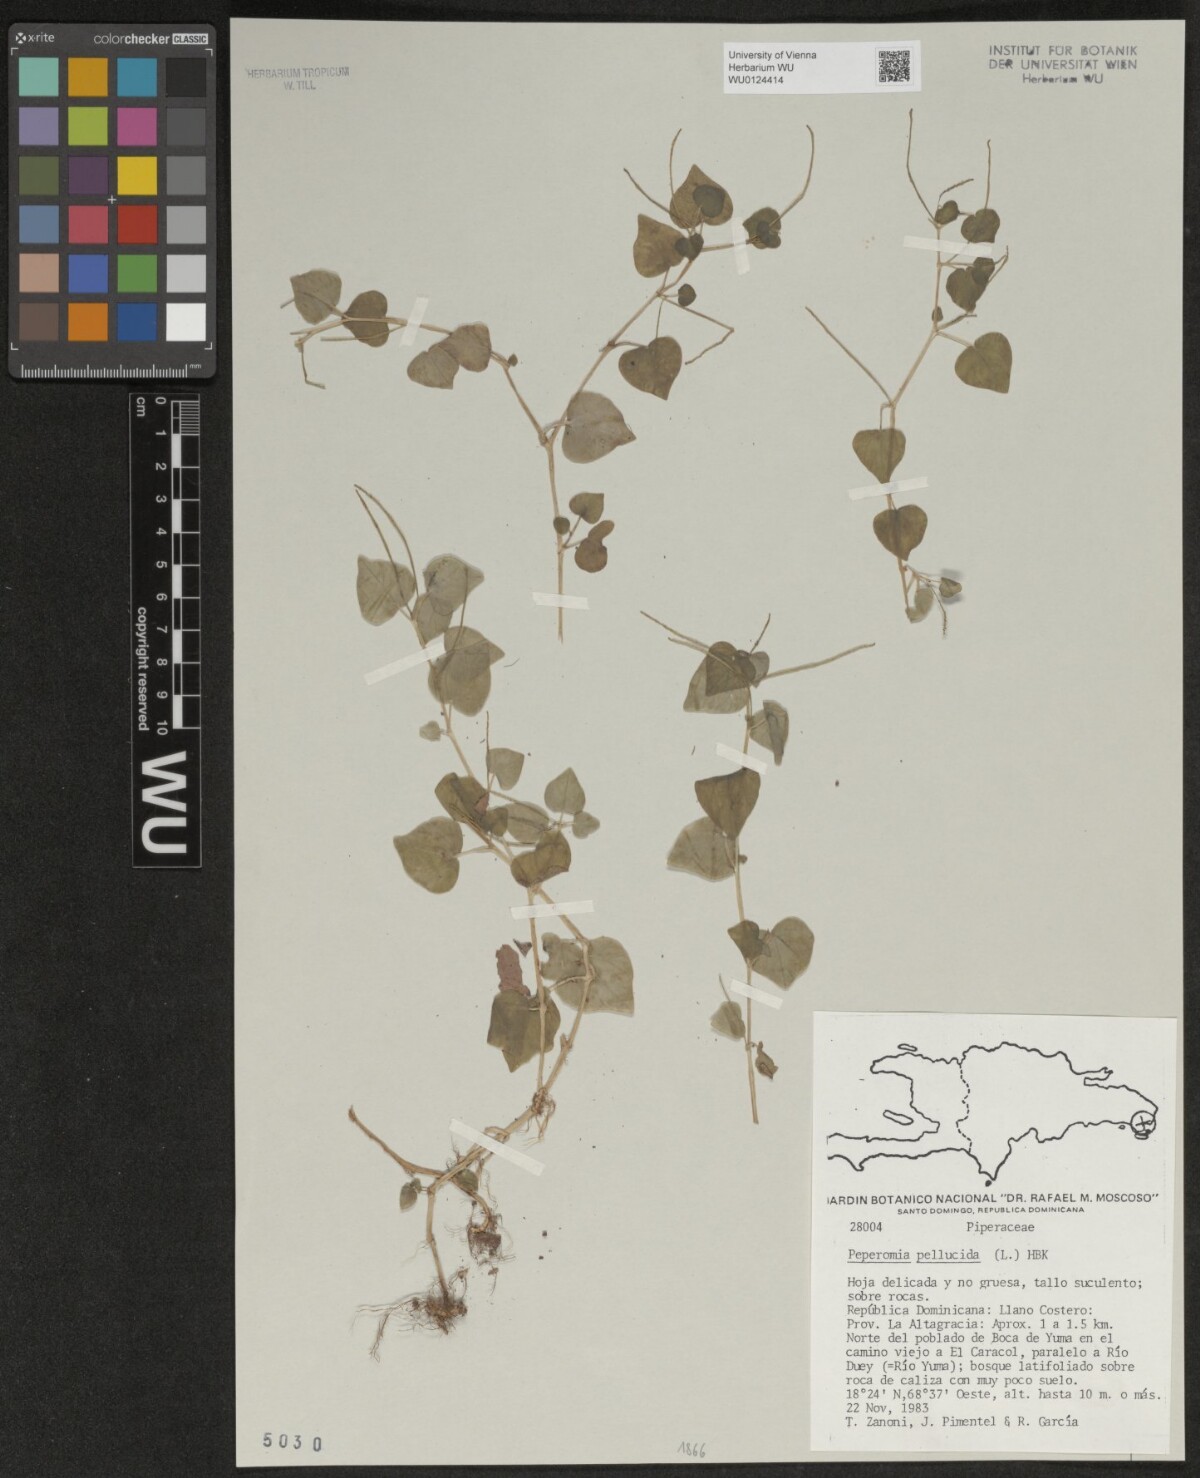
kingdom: Plantae
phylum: Tracheophyta
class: Magnoliopsida
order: Piperales
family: Piperaceae
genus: Peperomia
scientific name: Peperomia pellucida
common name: Man to man
